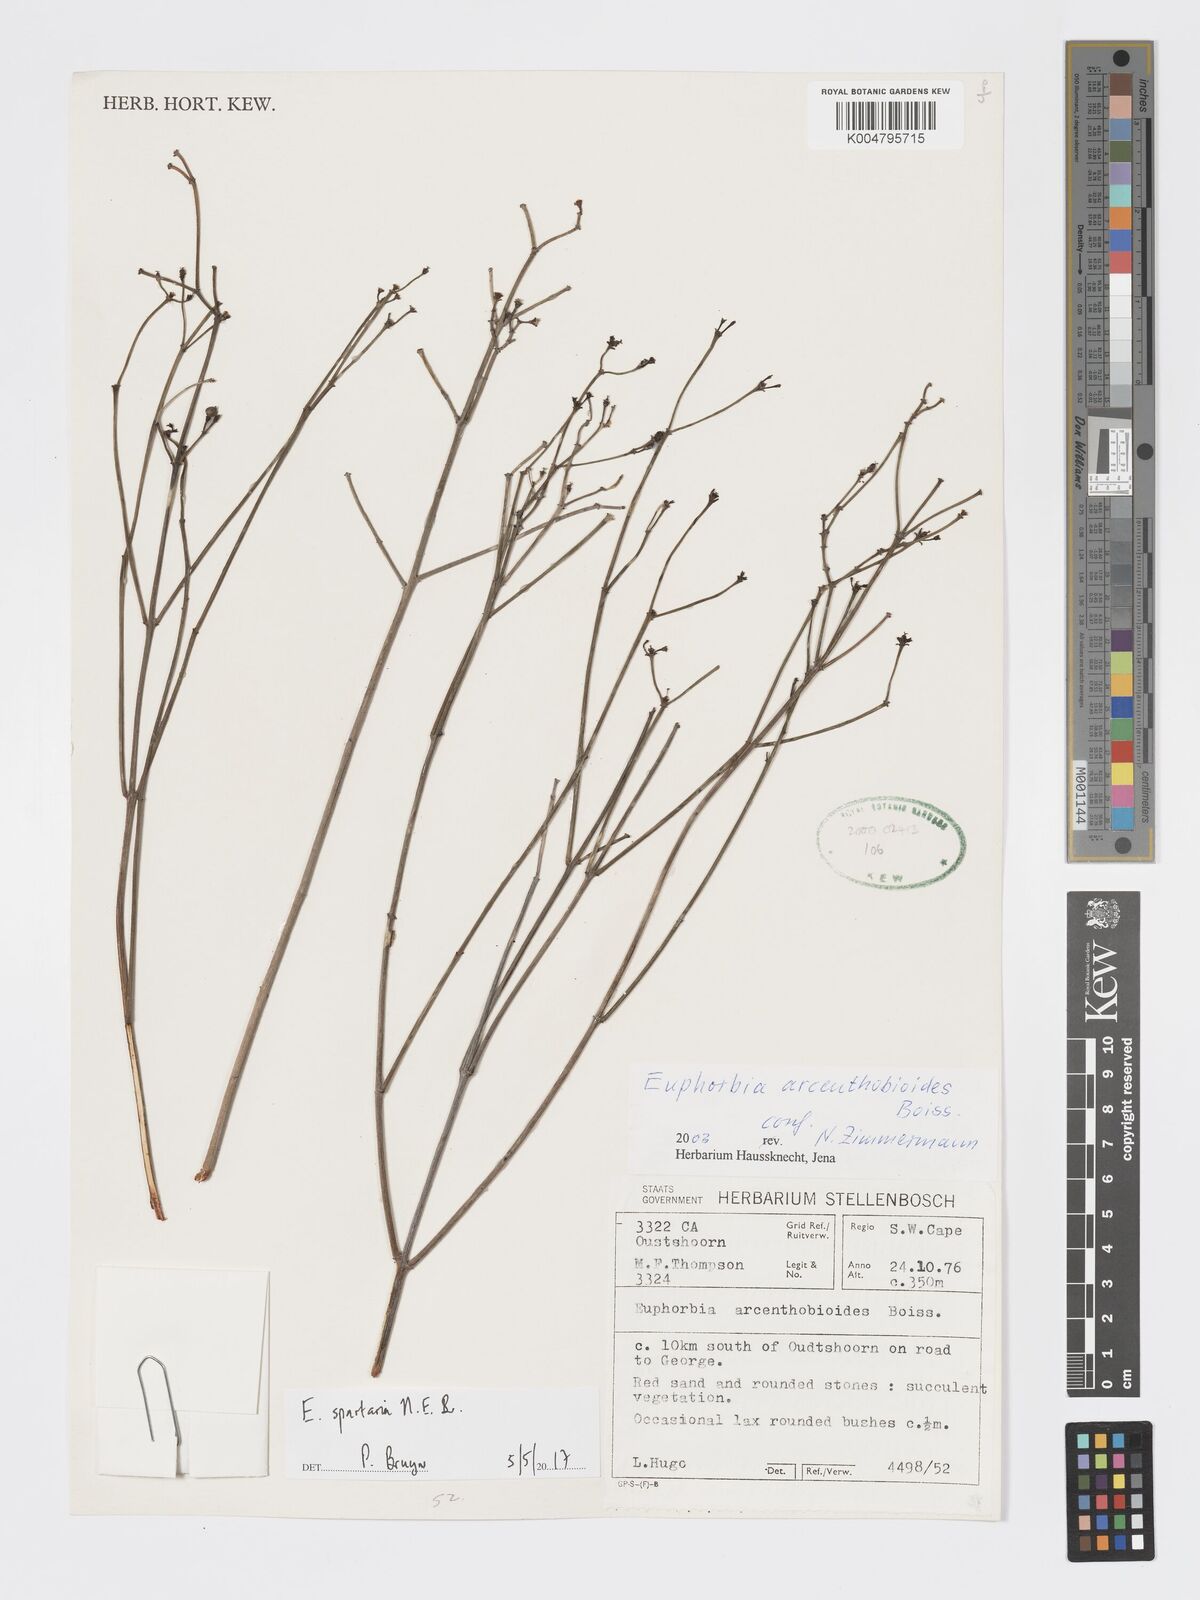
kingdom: Plantae
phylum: Tracheophyta
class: Magnoliopsida
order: Malpighiales
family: Euphorbiaceae
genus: Euphorbia
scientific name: Euphorbia spartaria
